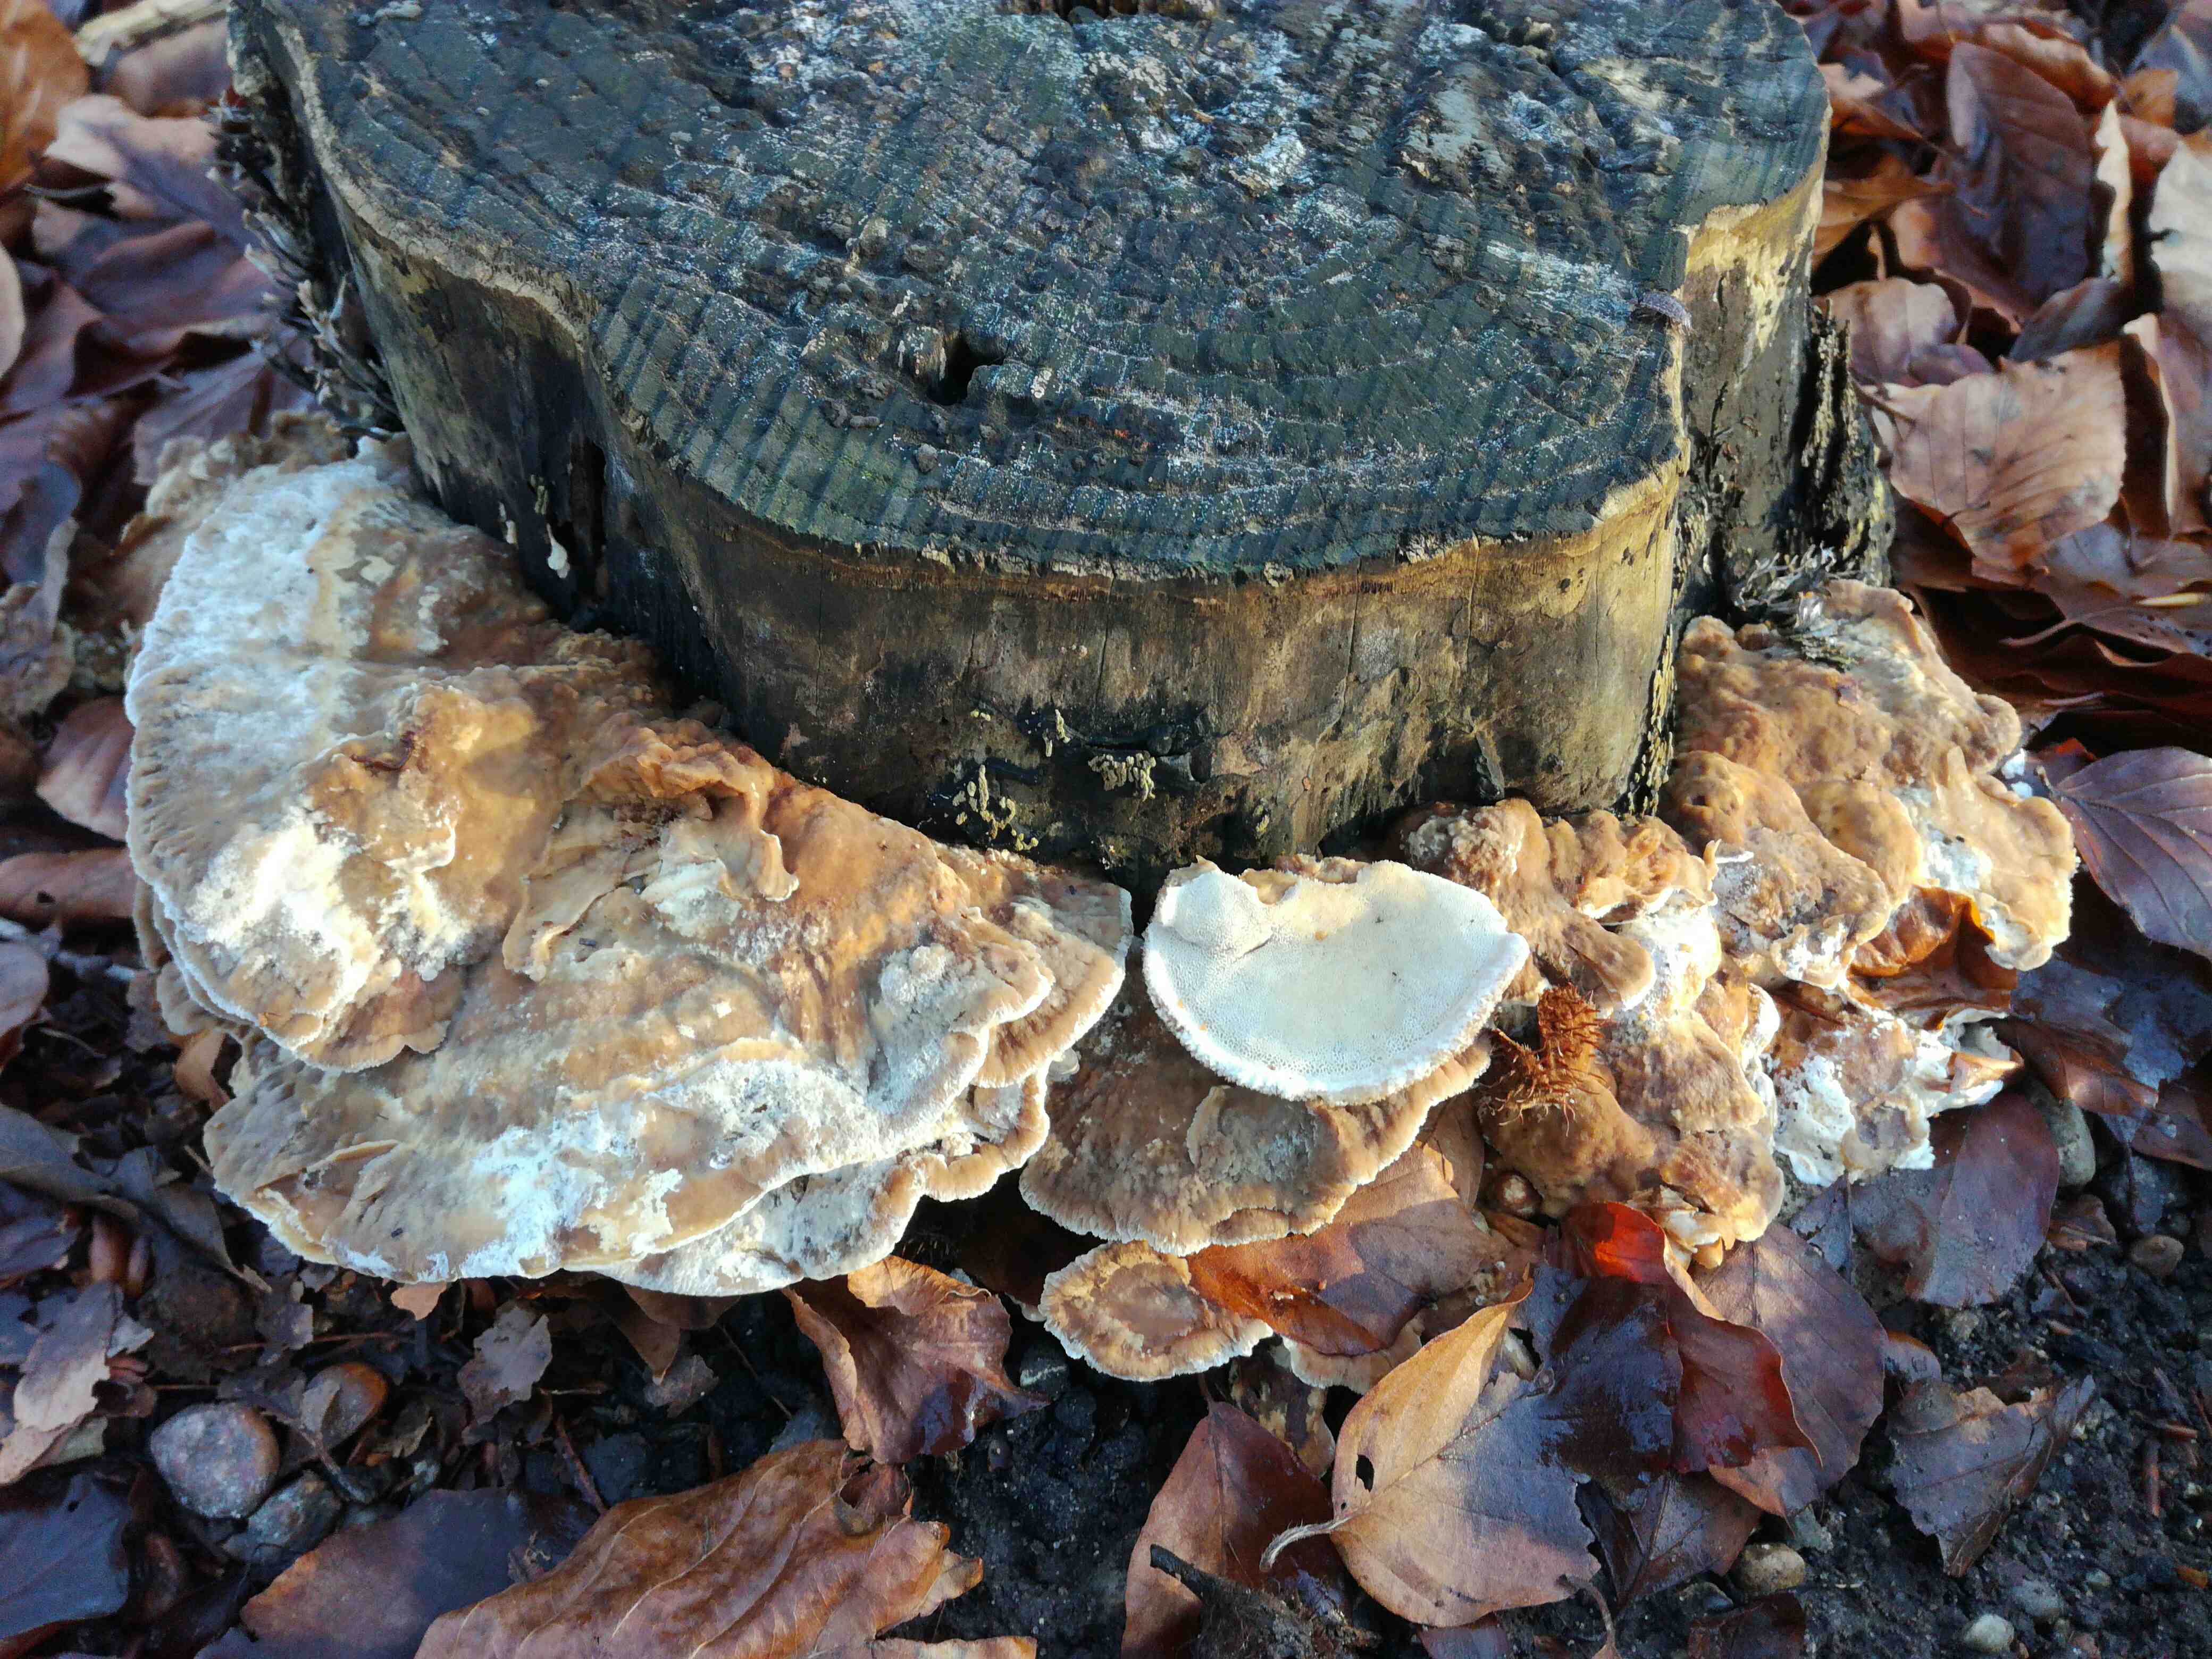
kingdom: Fungi
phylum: Basidiomycota
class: Agaricomycetes
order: Polyporales
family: Phanerochaetaceae
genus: Bjerkandera
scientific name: Bjerkandera fumosa
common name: grågul sodporesvamp
